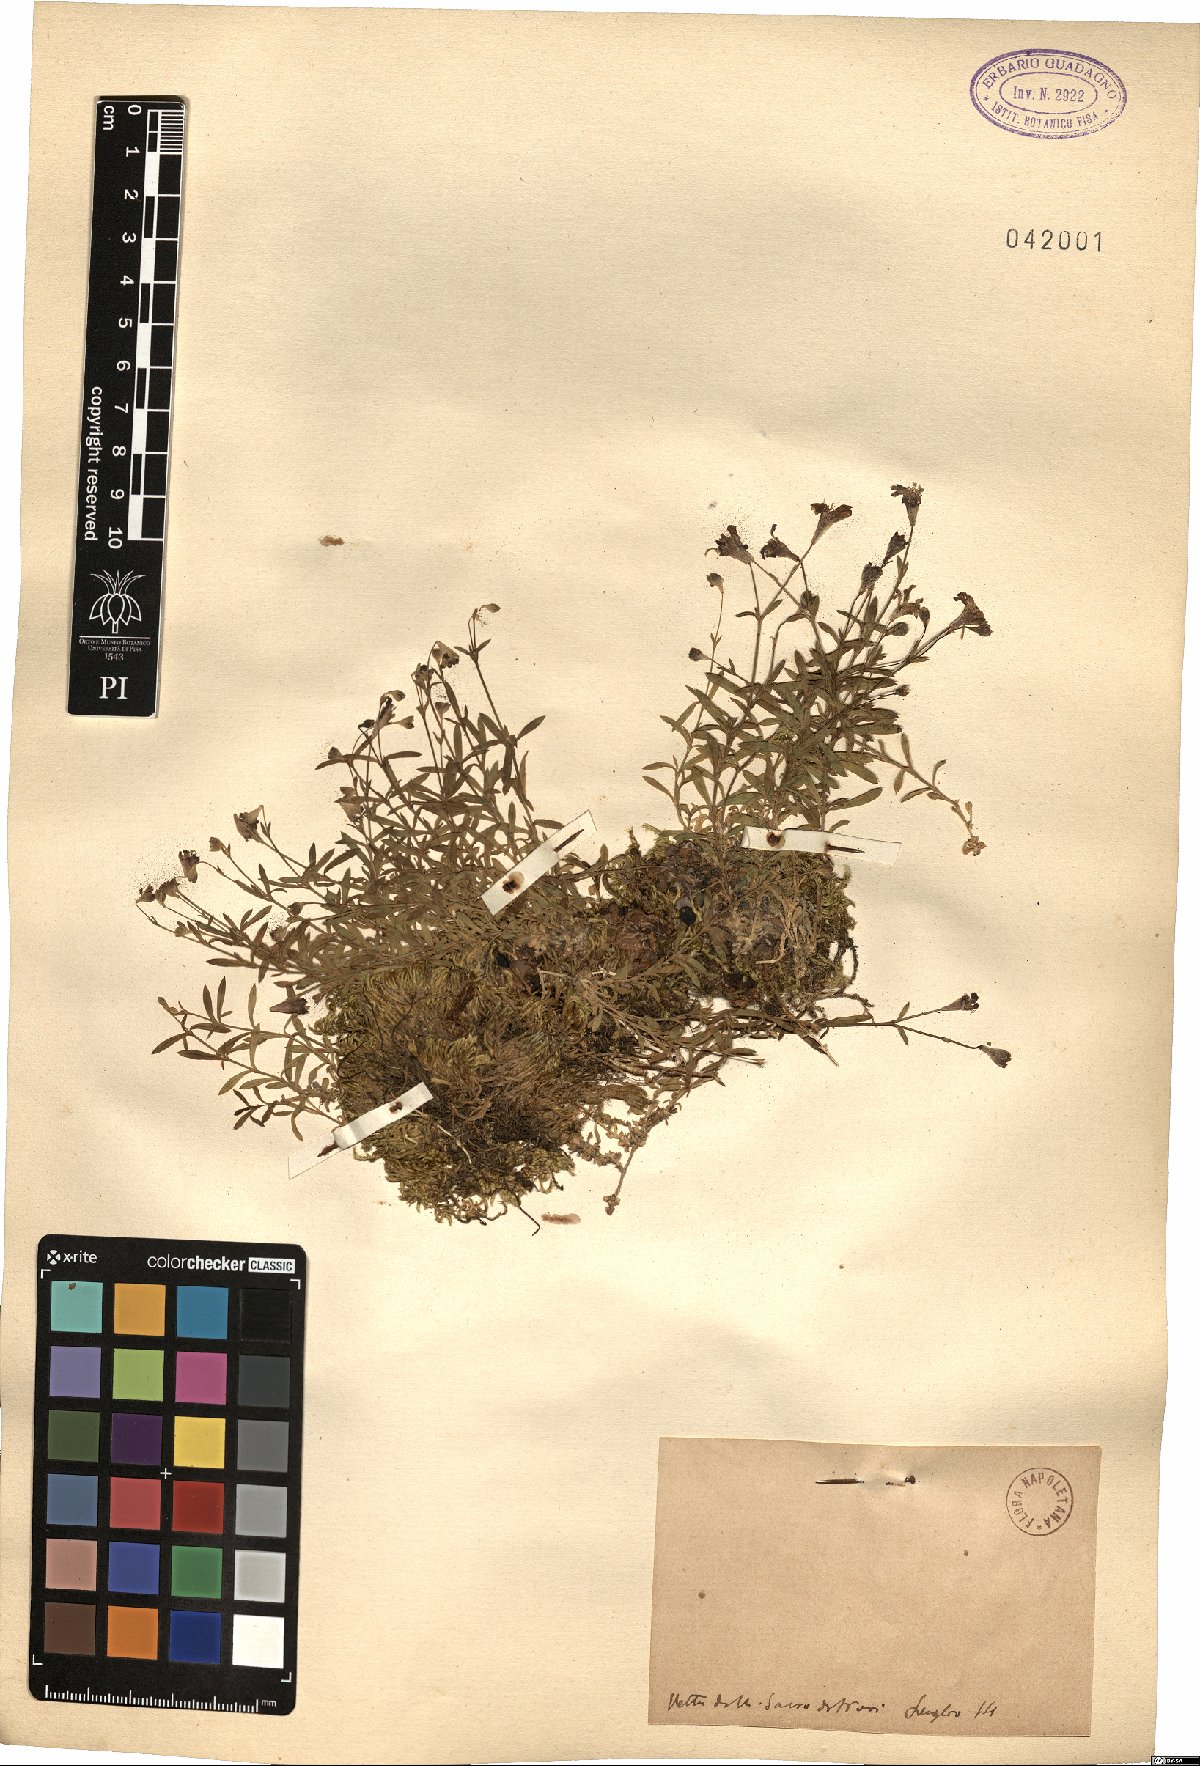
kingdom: Plantae
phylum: Tracheophyta
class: Magnoliopsida
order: Caryophyllales
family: Caryophyllaceae
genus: Silene
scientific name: Silene
